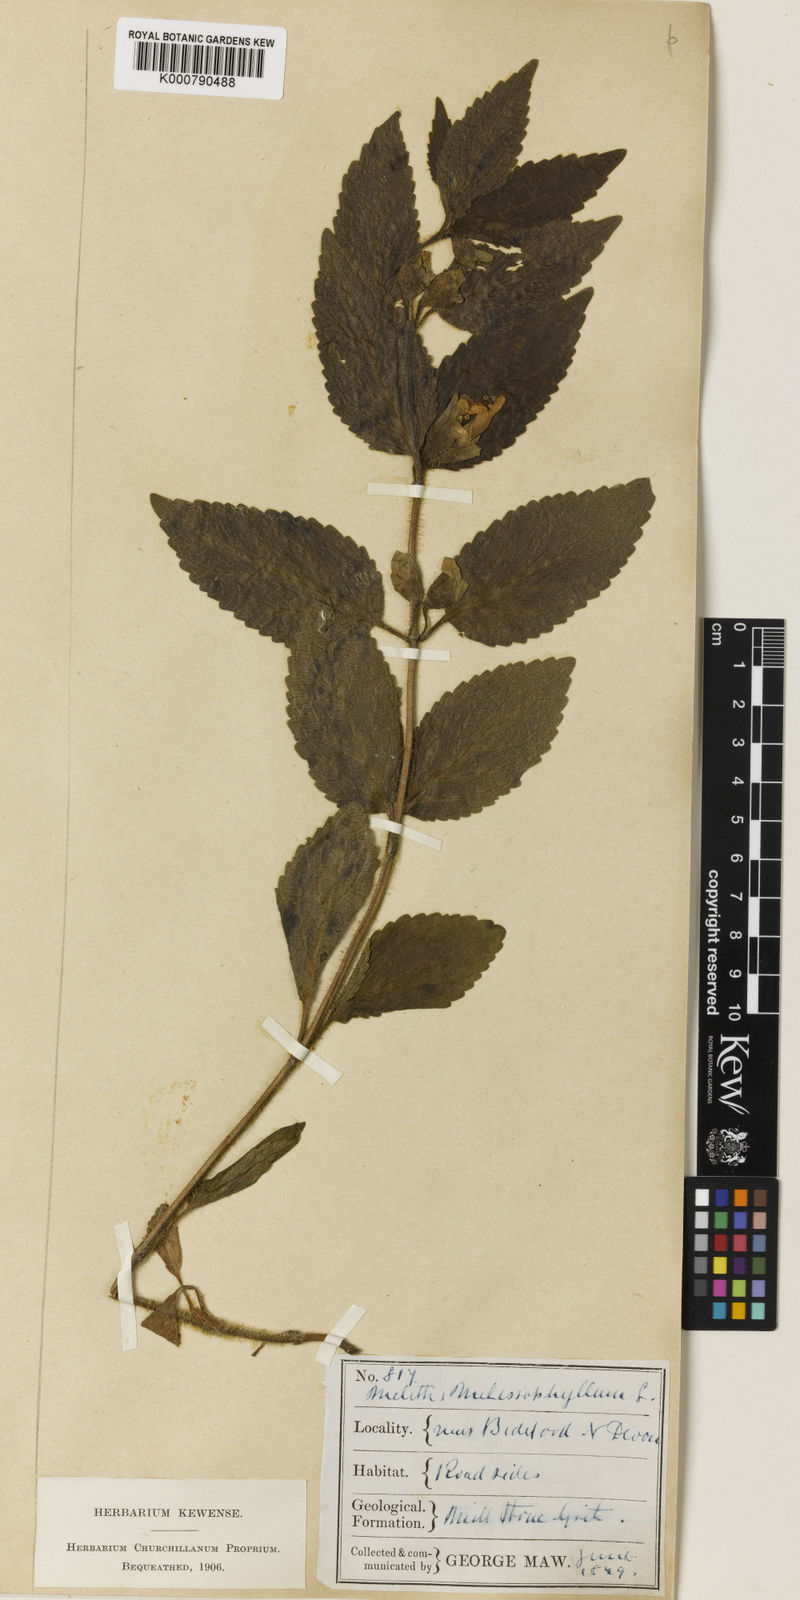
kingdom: Plantae
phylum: Tracheophyta
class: Magnoliopsida
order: Lamiales
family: Lamiaceae
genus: Melittis
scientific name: Melittis melissophyllum
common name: Bastard balm
